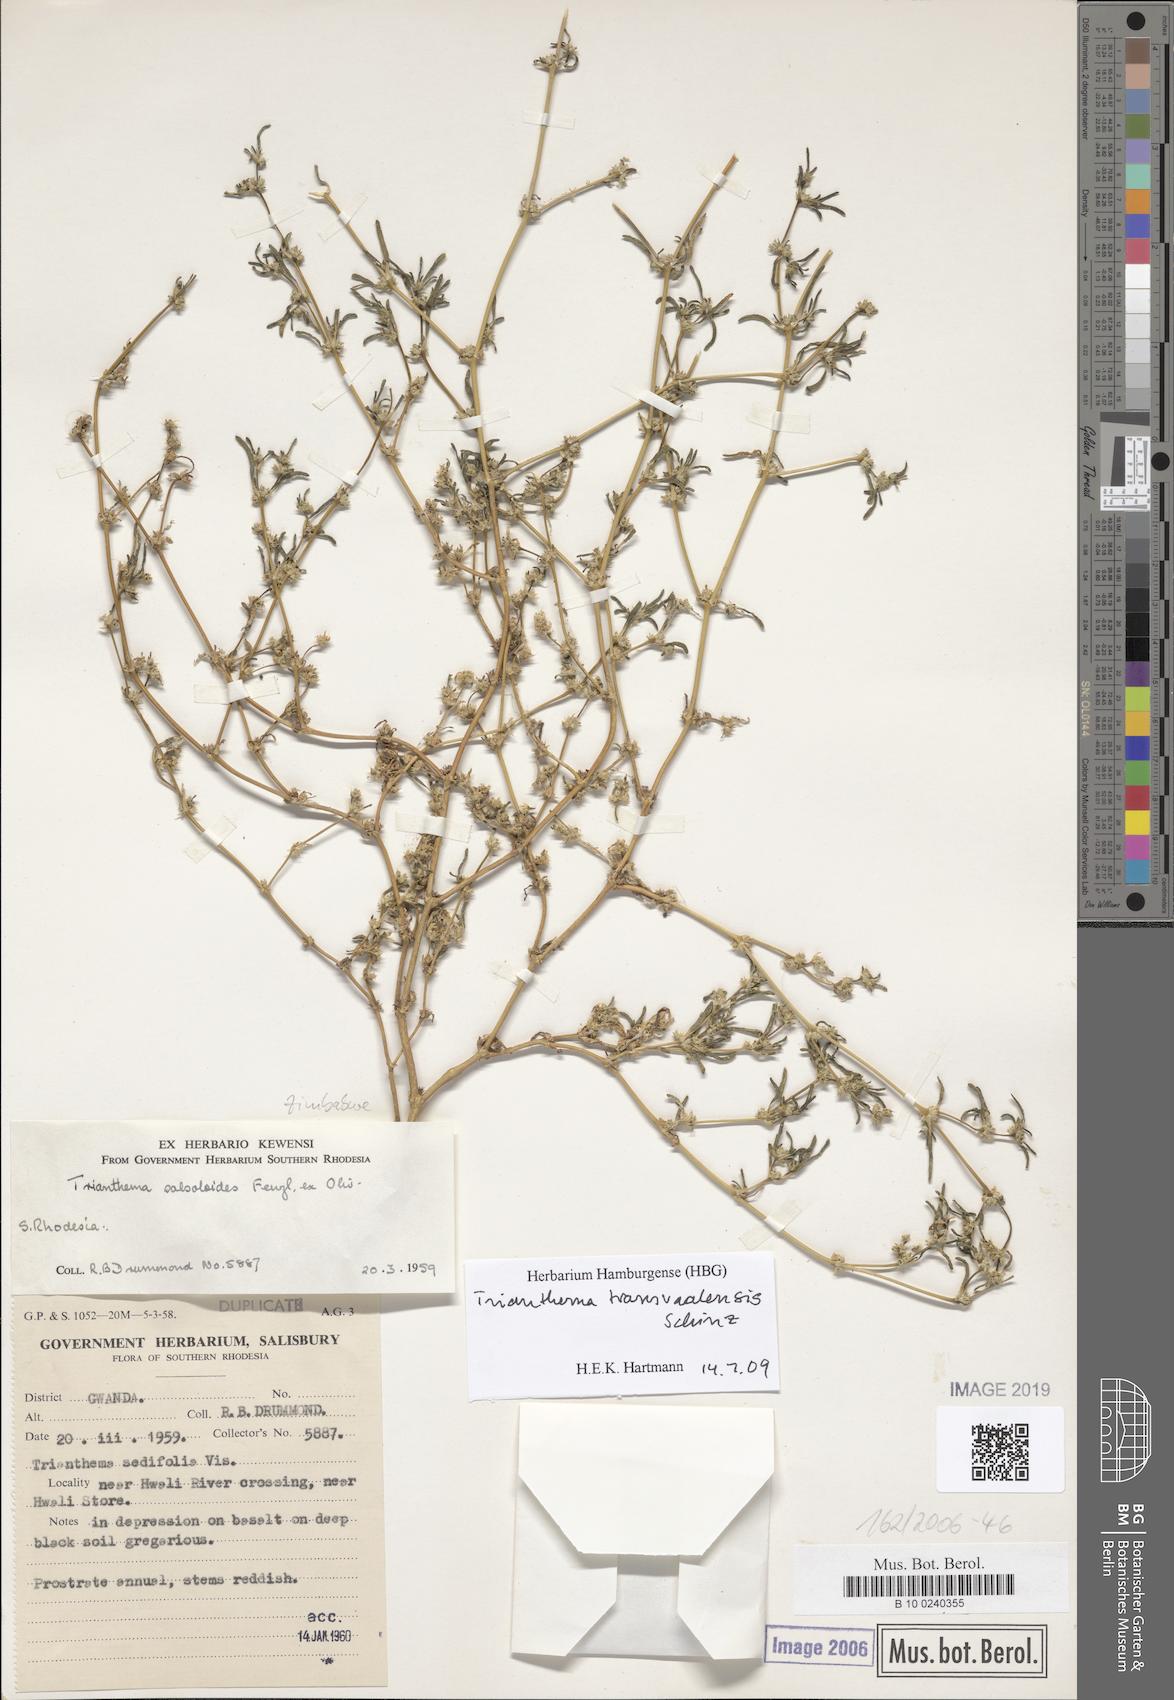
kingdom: Plantae
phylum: Tracheophyta
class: Magnoliopsida
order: Caryophyllales
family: Aizoaceae
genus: Trianthema
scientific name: Trianthema salsoloides
